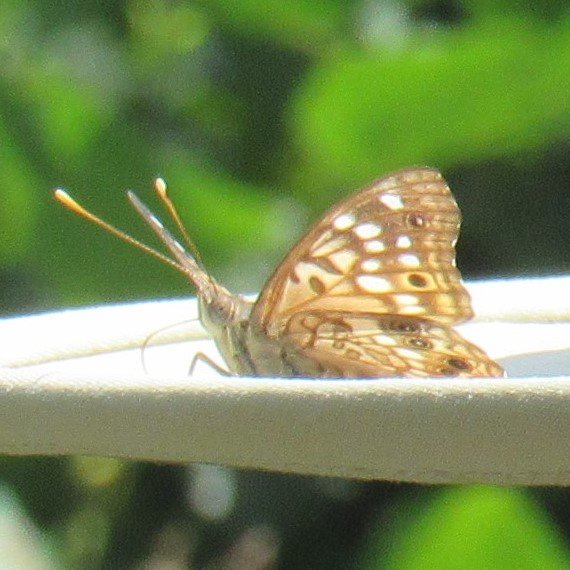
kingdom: Animalia
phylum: Arthropoda
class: Insecta
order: Lepidoptera
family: Nymphalidae
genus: Asterocampa
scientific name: Asterocampa celtis
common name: Hackberry Emperor
